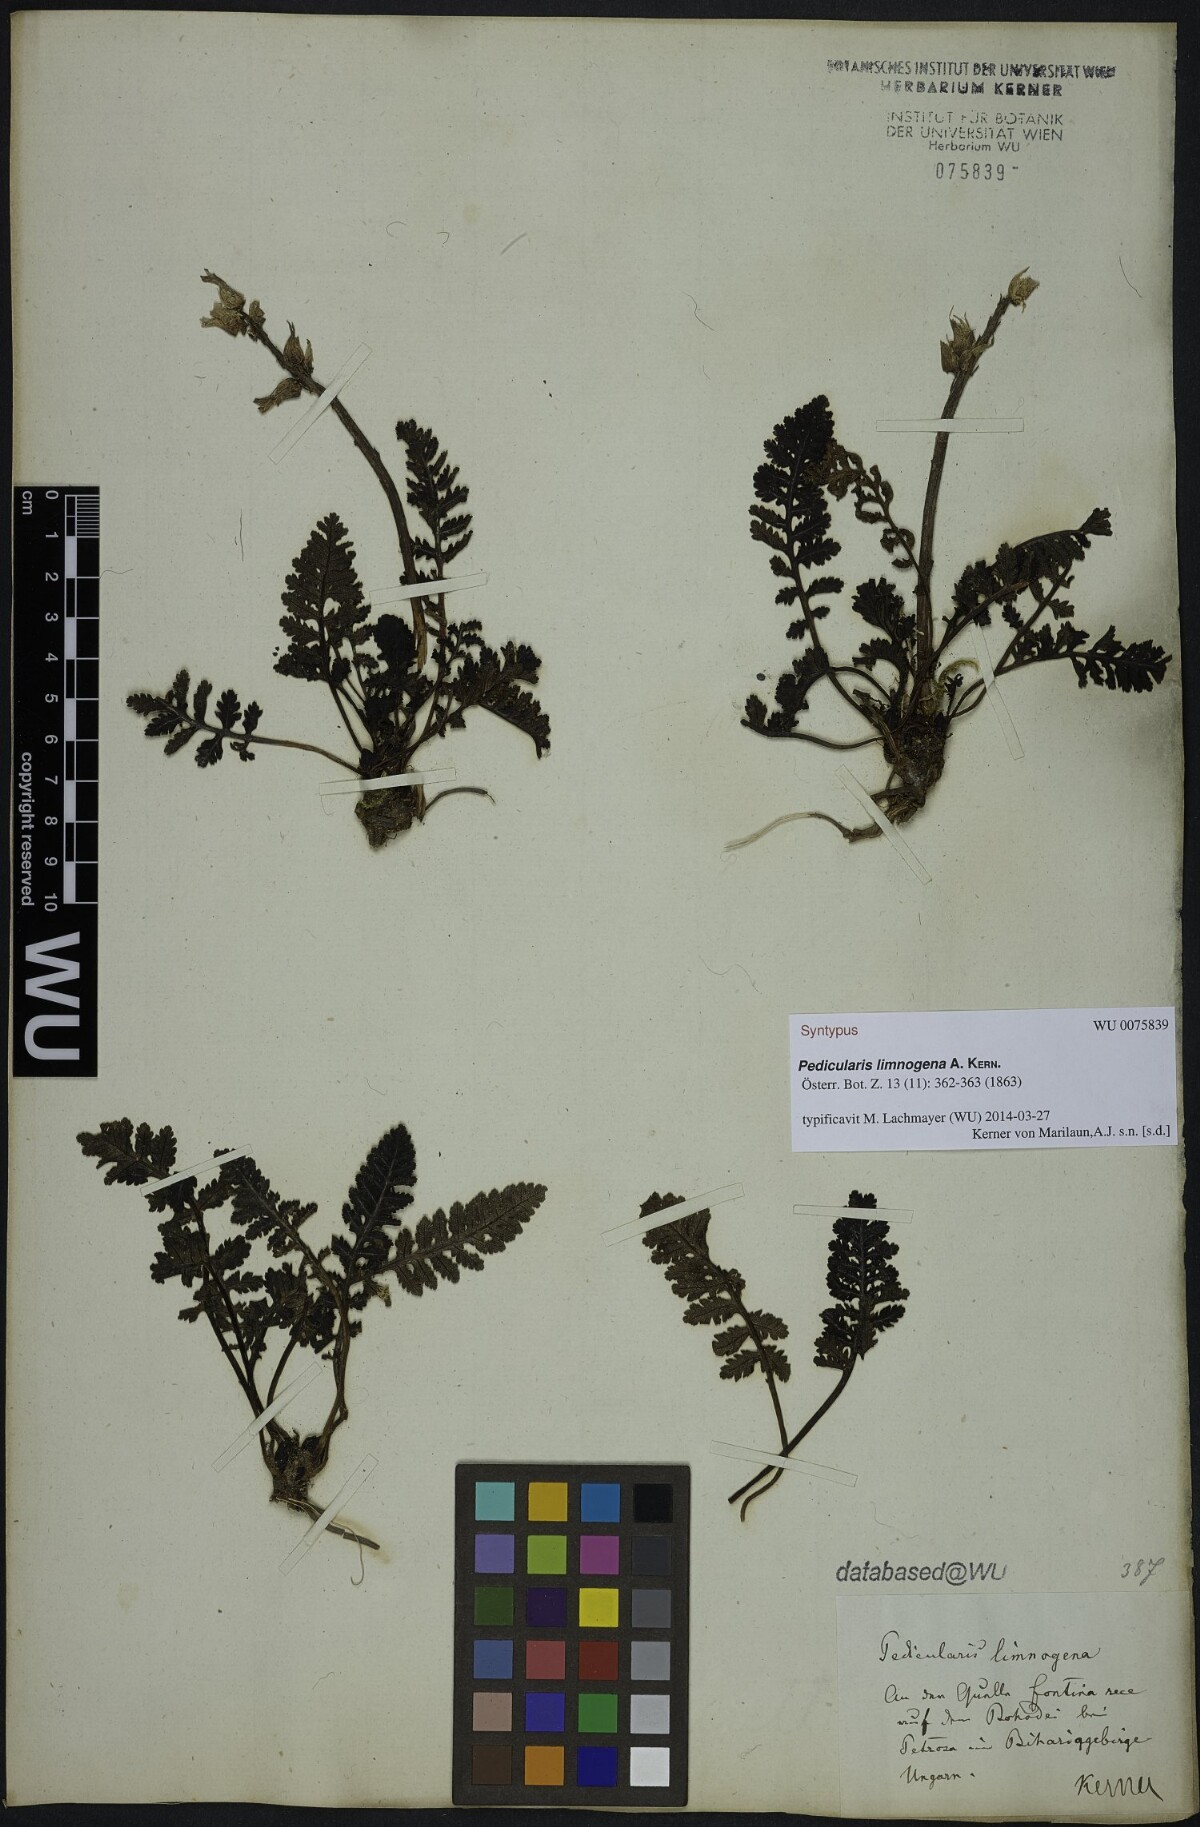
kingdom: Plantae
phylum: Tracheophyta
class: Magnoliopsida
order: Lamiales
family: Orobanchaceae
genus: Pedicularis
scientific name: Pedicularis olympica
